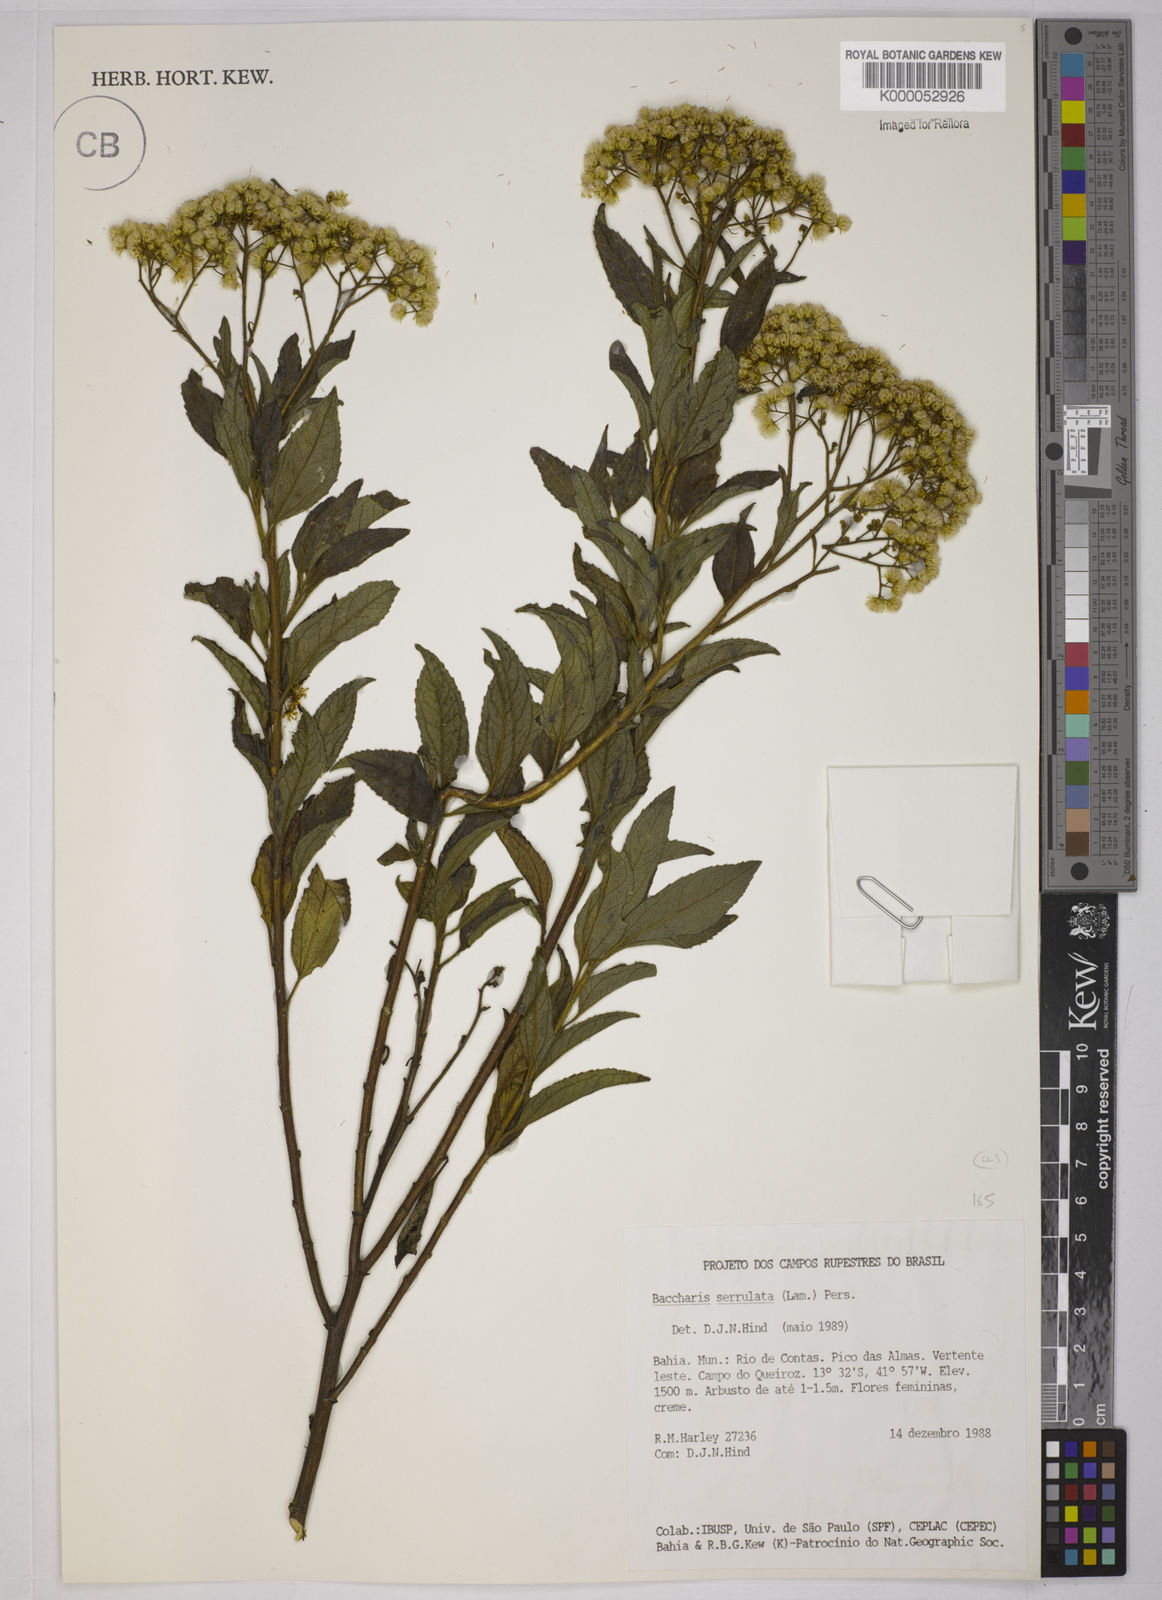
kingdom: Plantae
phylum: Tracheophyta
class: Magnoliopsida
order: Asterales
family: Asteraceae
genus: Baccharis
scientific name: Baccharis serrulata
